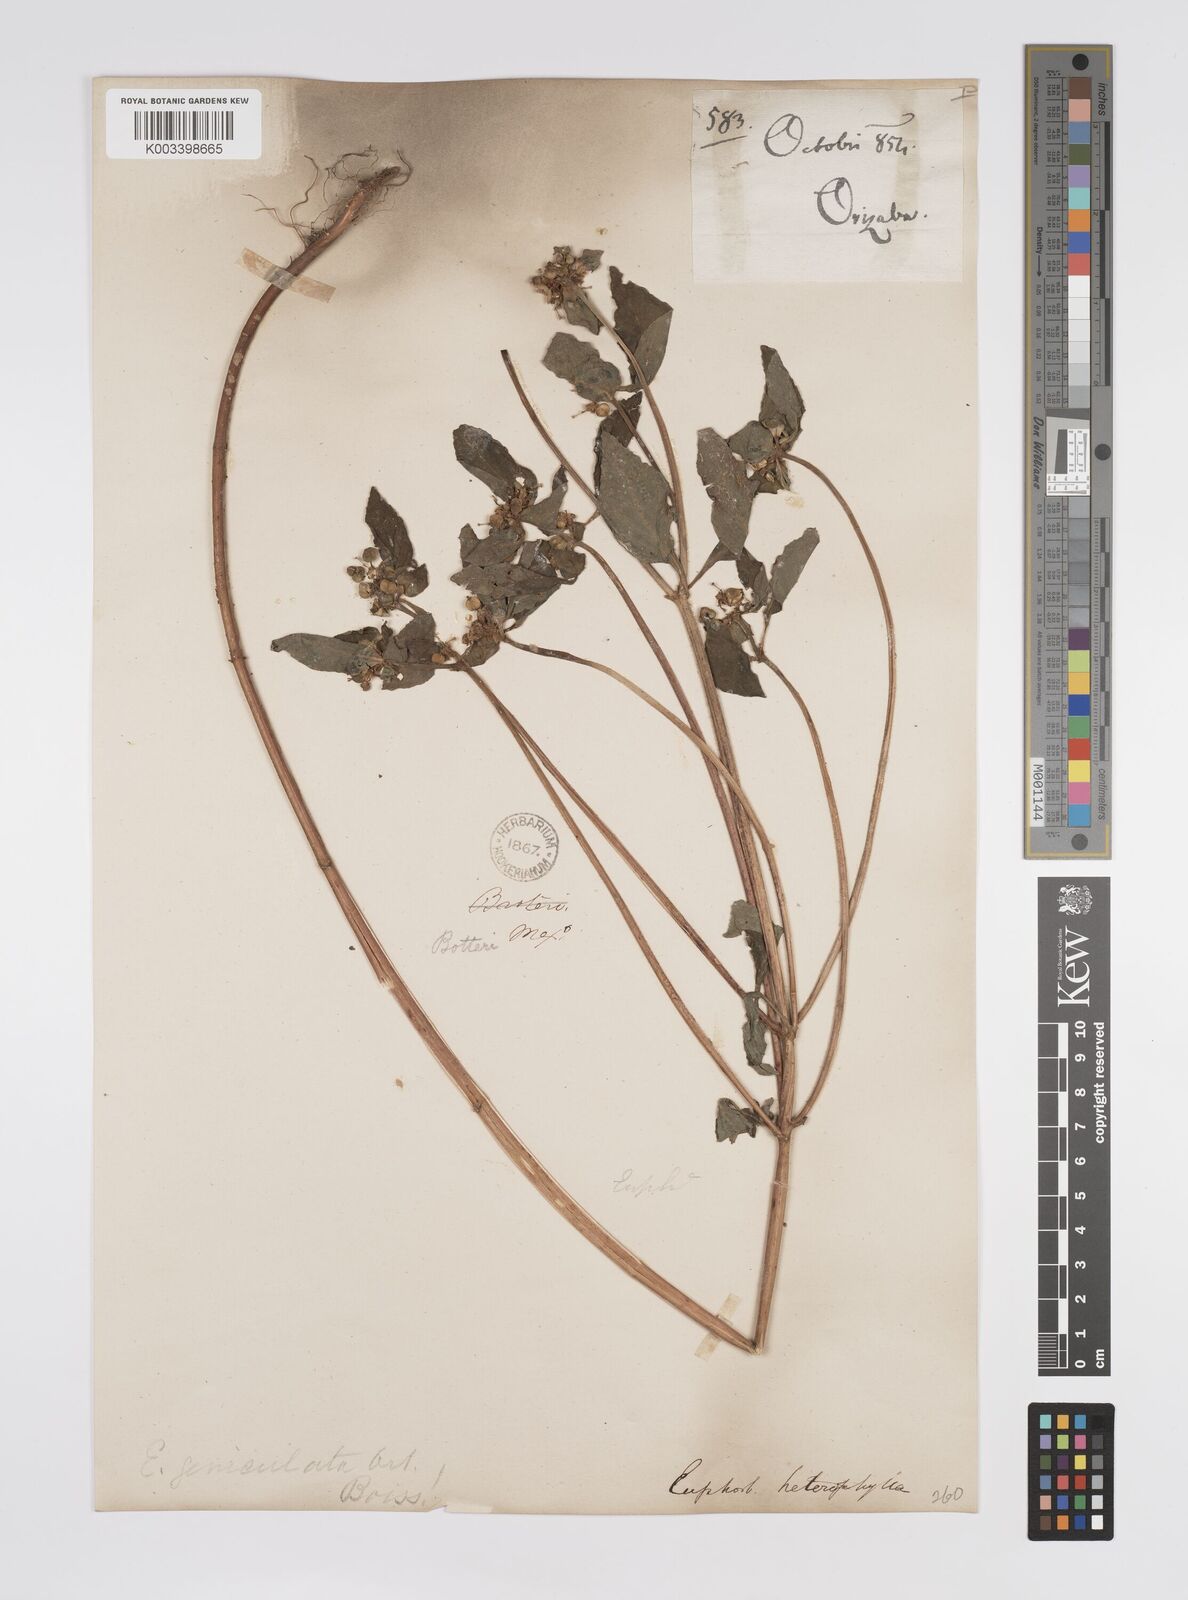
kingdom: Plantae
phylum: Tracheophyta
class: Magnoliopsida
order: Malpighiales
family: Euphorbiaceae
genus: Euphorbia
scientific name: Euphorbia
